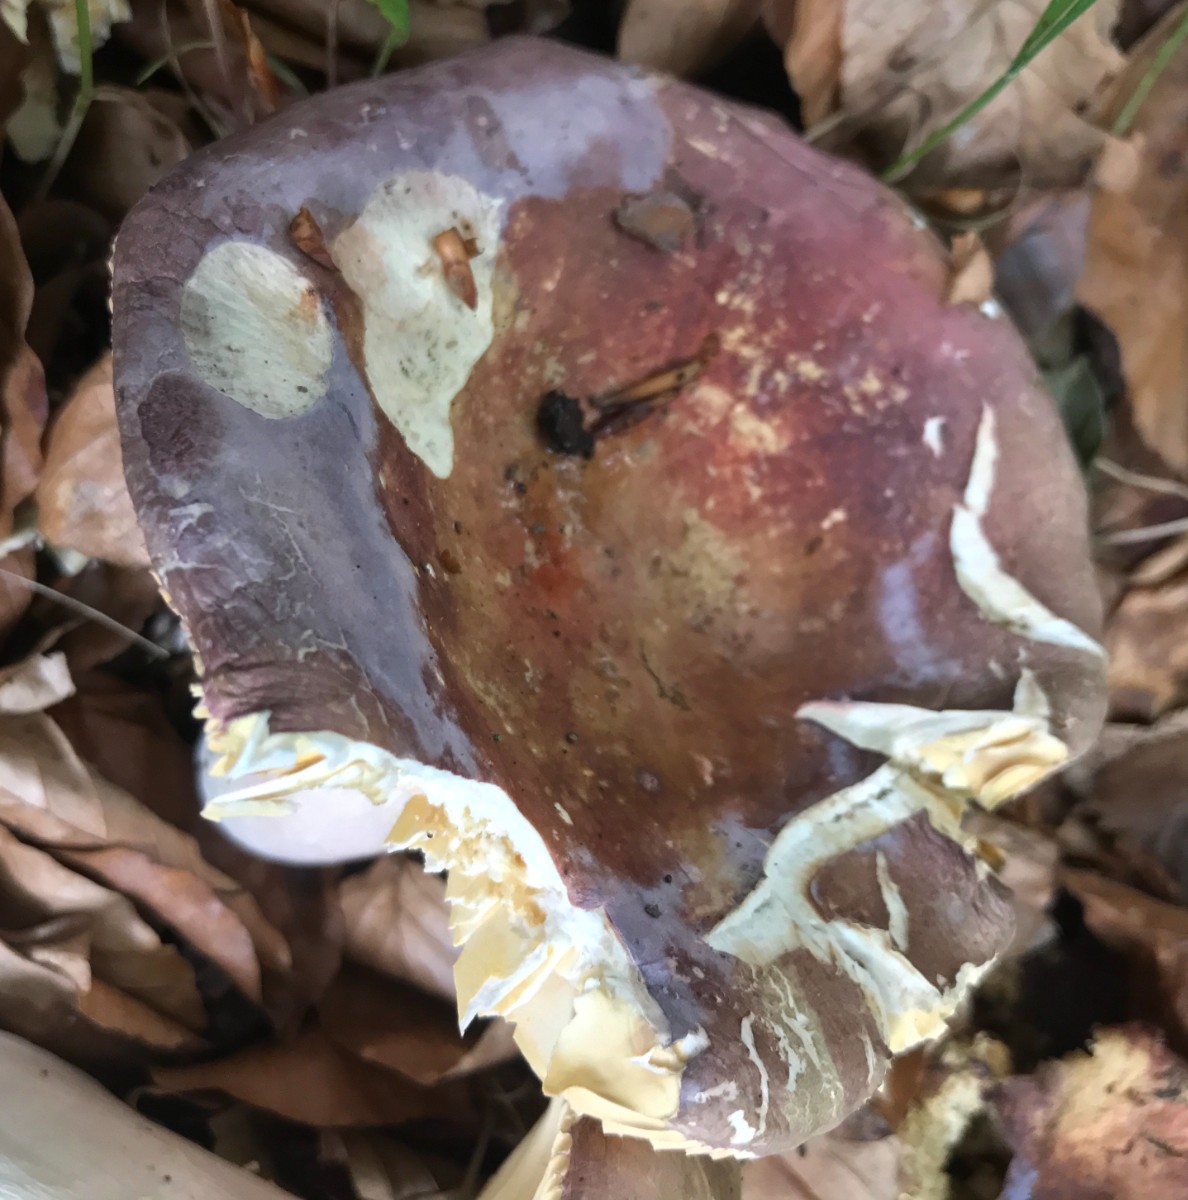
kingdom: Fungi
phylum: Basidiomycota
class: Agaricomycetes
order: Russulales
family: Russulaceae
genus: Russula
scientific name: Russula olivacea
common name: stor skørhat
